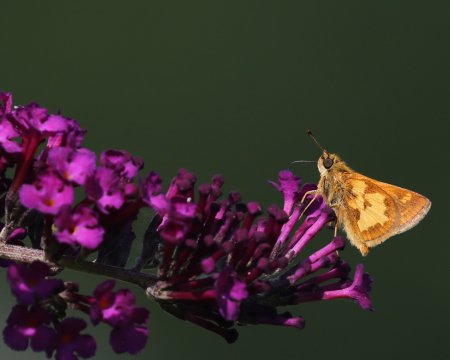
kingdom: Animalia
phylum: Arthropoda
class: Insecta
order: Lepidoptera
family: Hesperiidae
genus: Polites
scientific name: Polites coras
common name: Peck's Skipper
